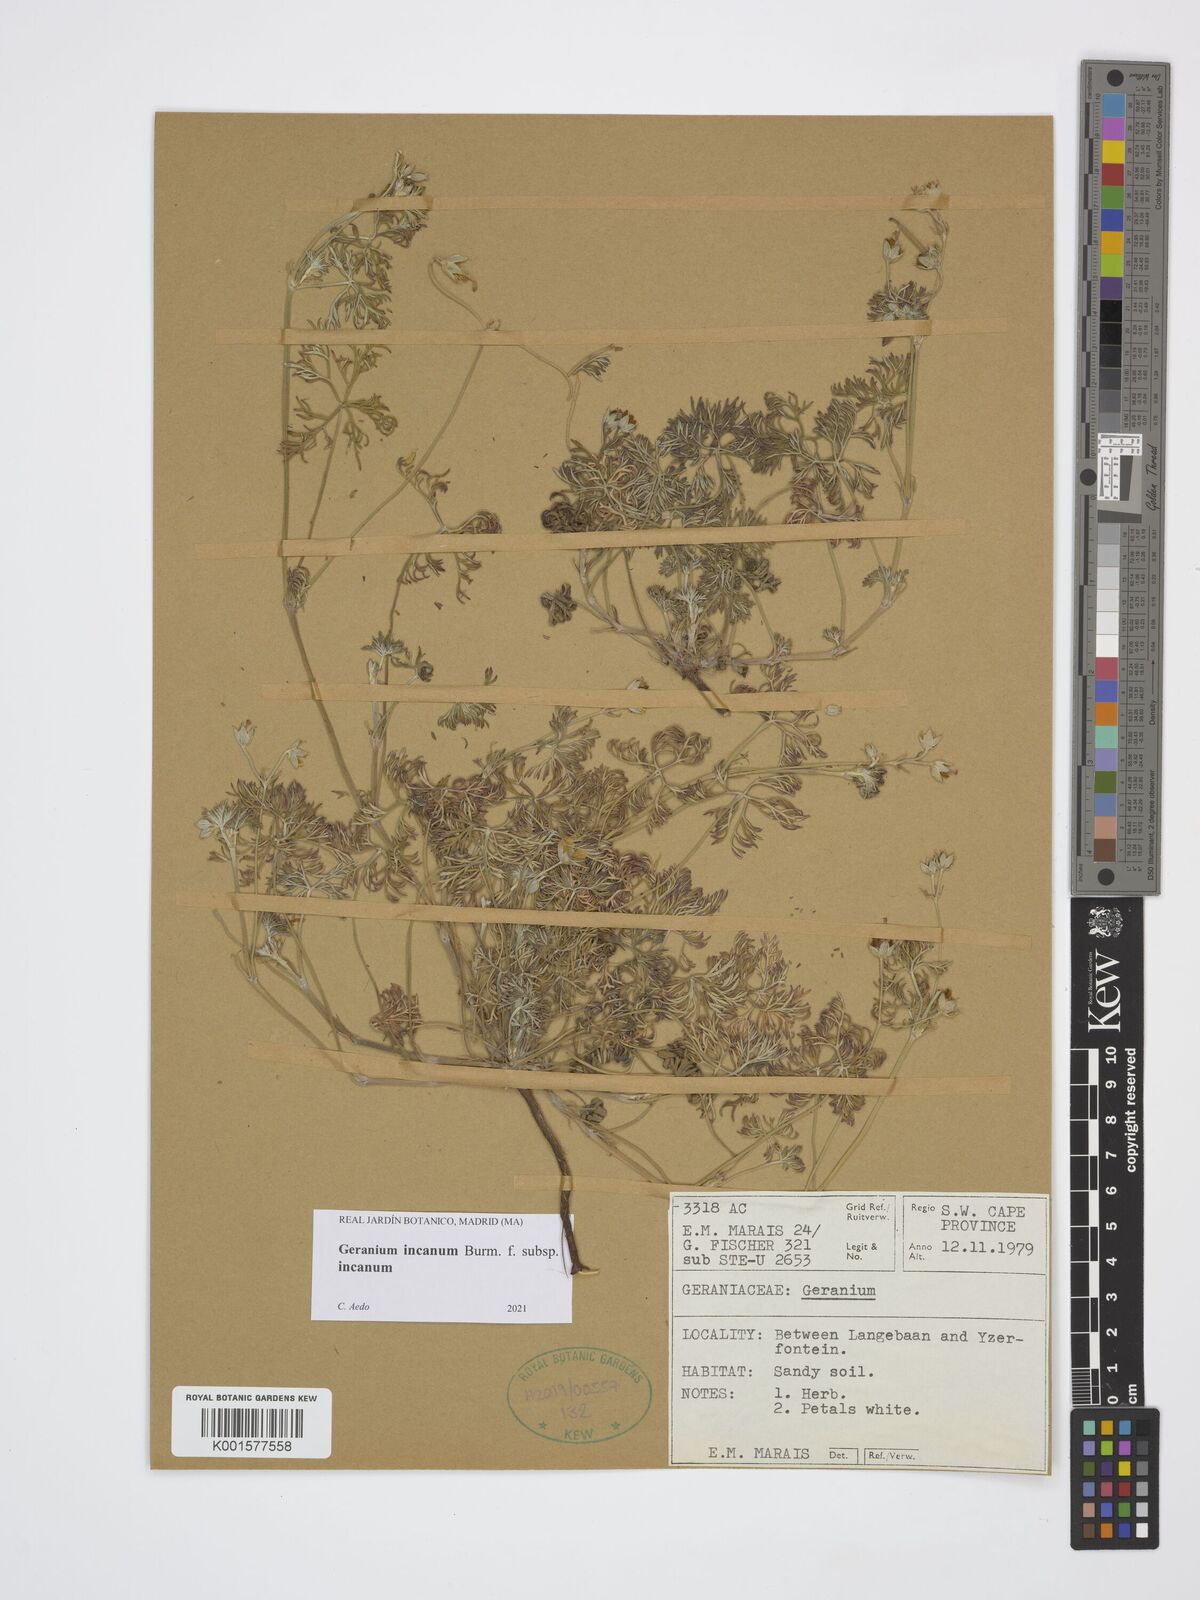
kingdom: Plantae
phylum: Tracheophyta
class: Magnoliopsida
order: Geraniales
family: Geraniaceae
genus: Geranium
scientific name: Geranium incanum
